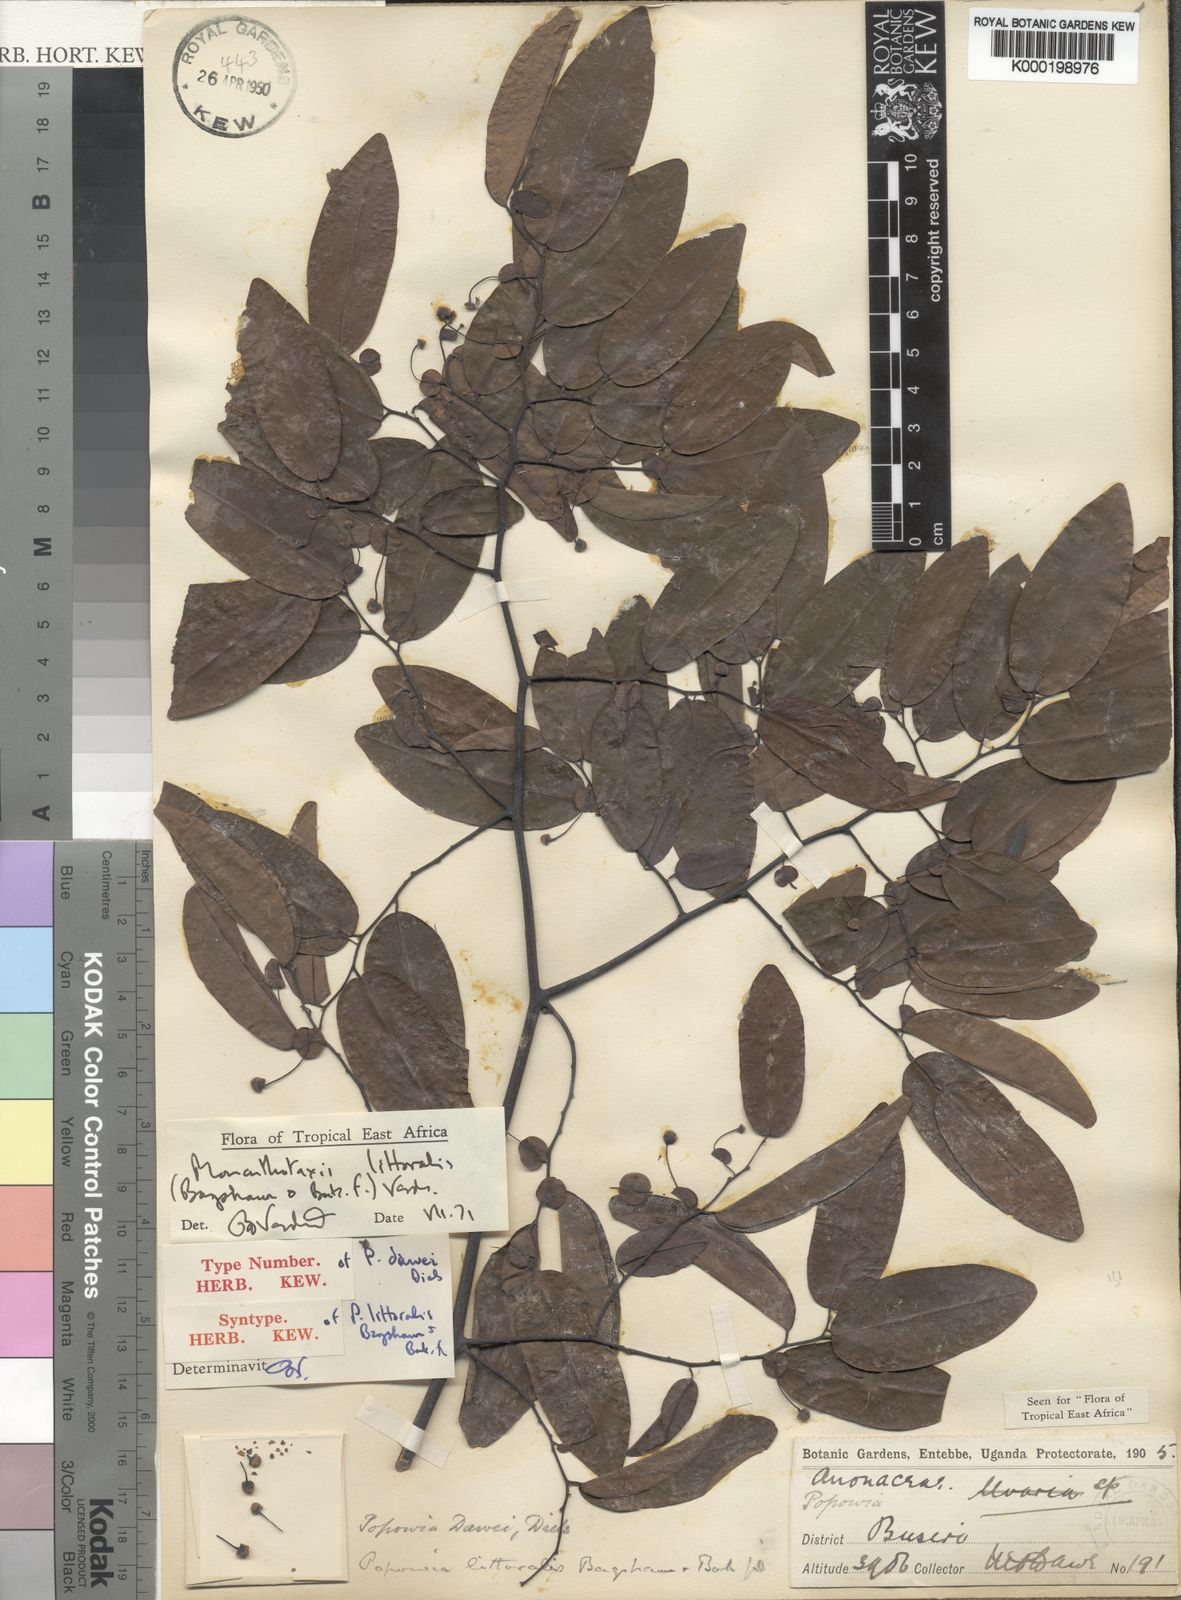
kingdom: Plantae
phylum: Tracheophyta
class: Magnoliopsida
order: Magnoliales
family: Annonaceae
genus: Monanthotaxis
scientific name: Monanthotaxis littoralis
